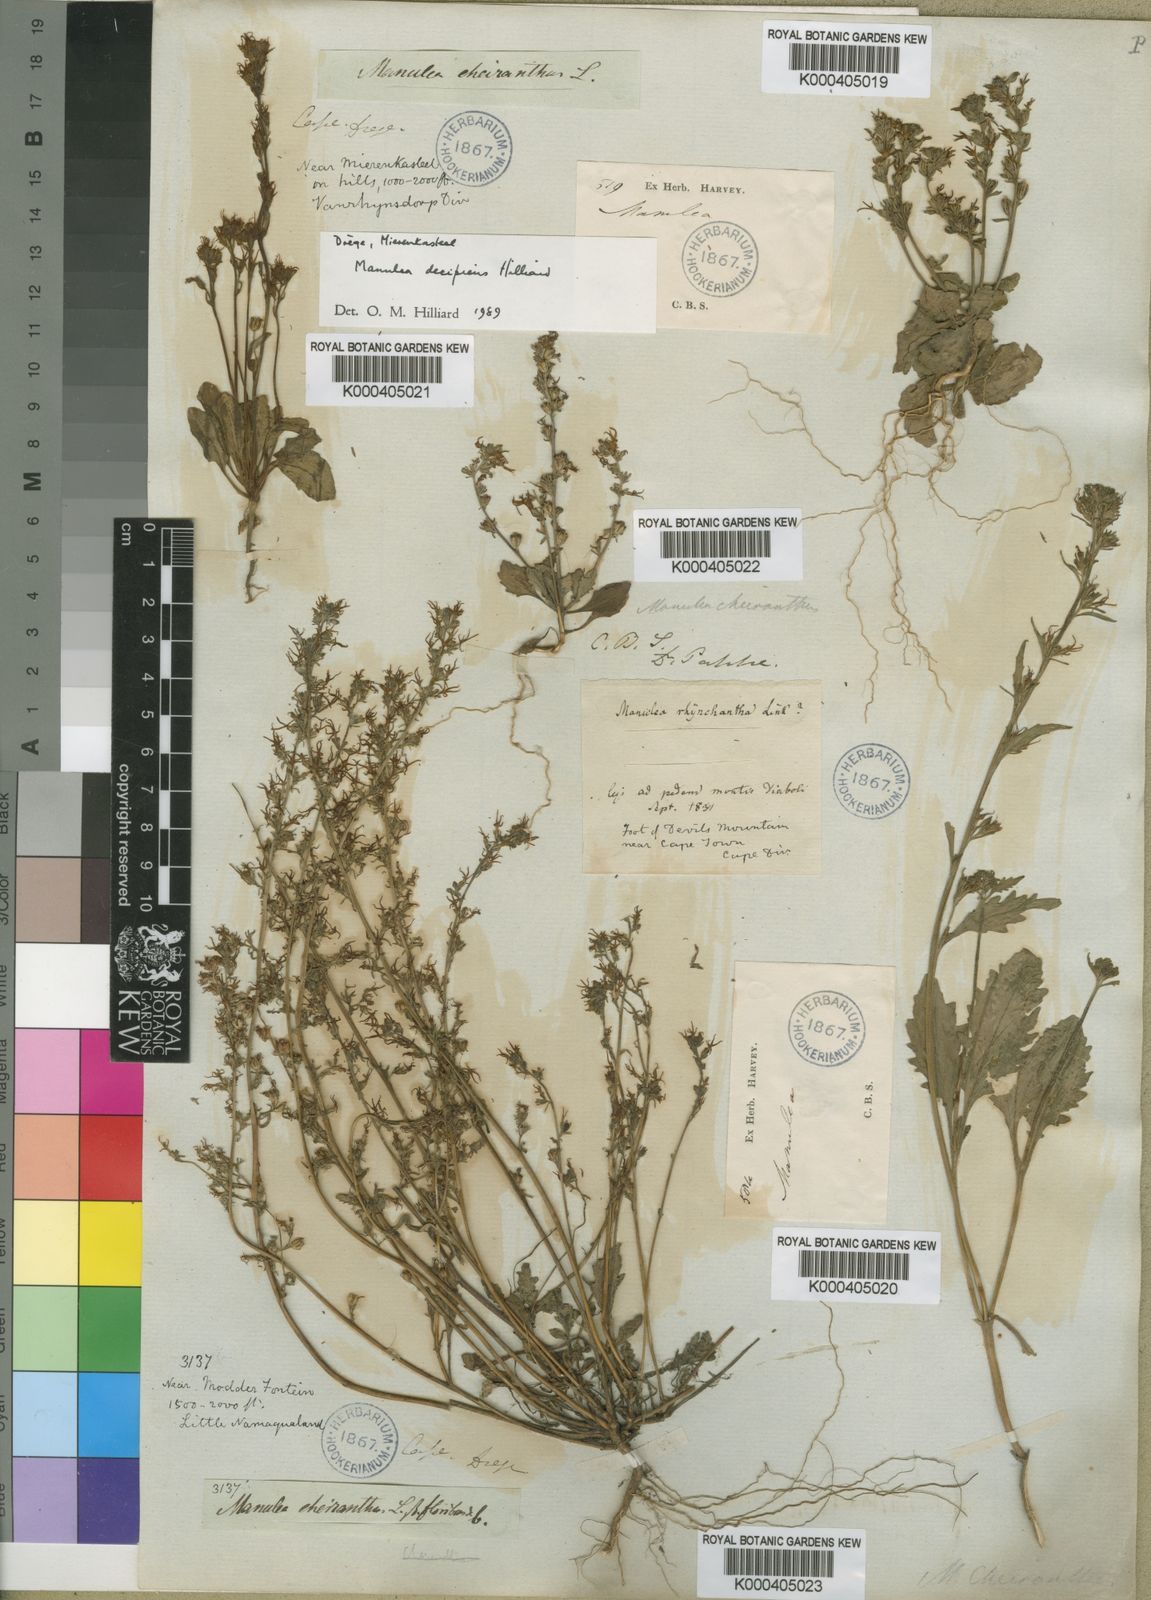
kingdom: Plantae
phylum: Tracheophyta
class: Magnoliopsida
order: Lamiales
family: Scrophulariaceae
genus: Manulea
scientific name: Manulea cheiranthus
